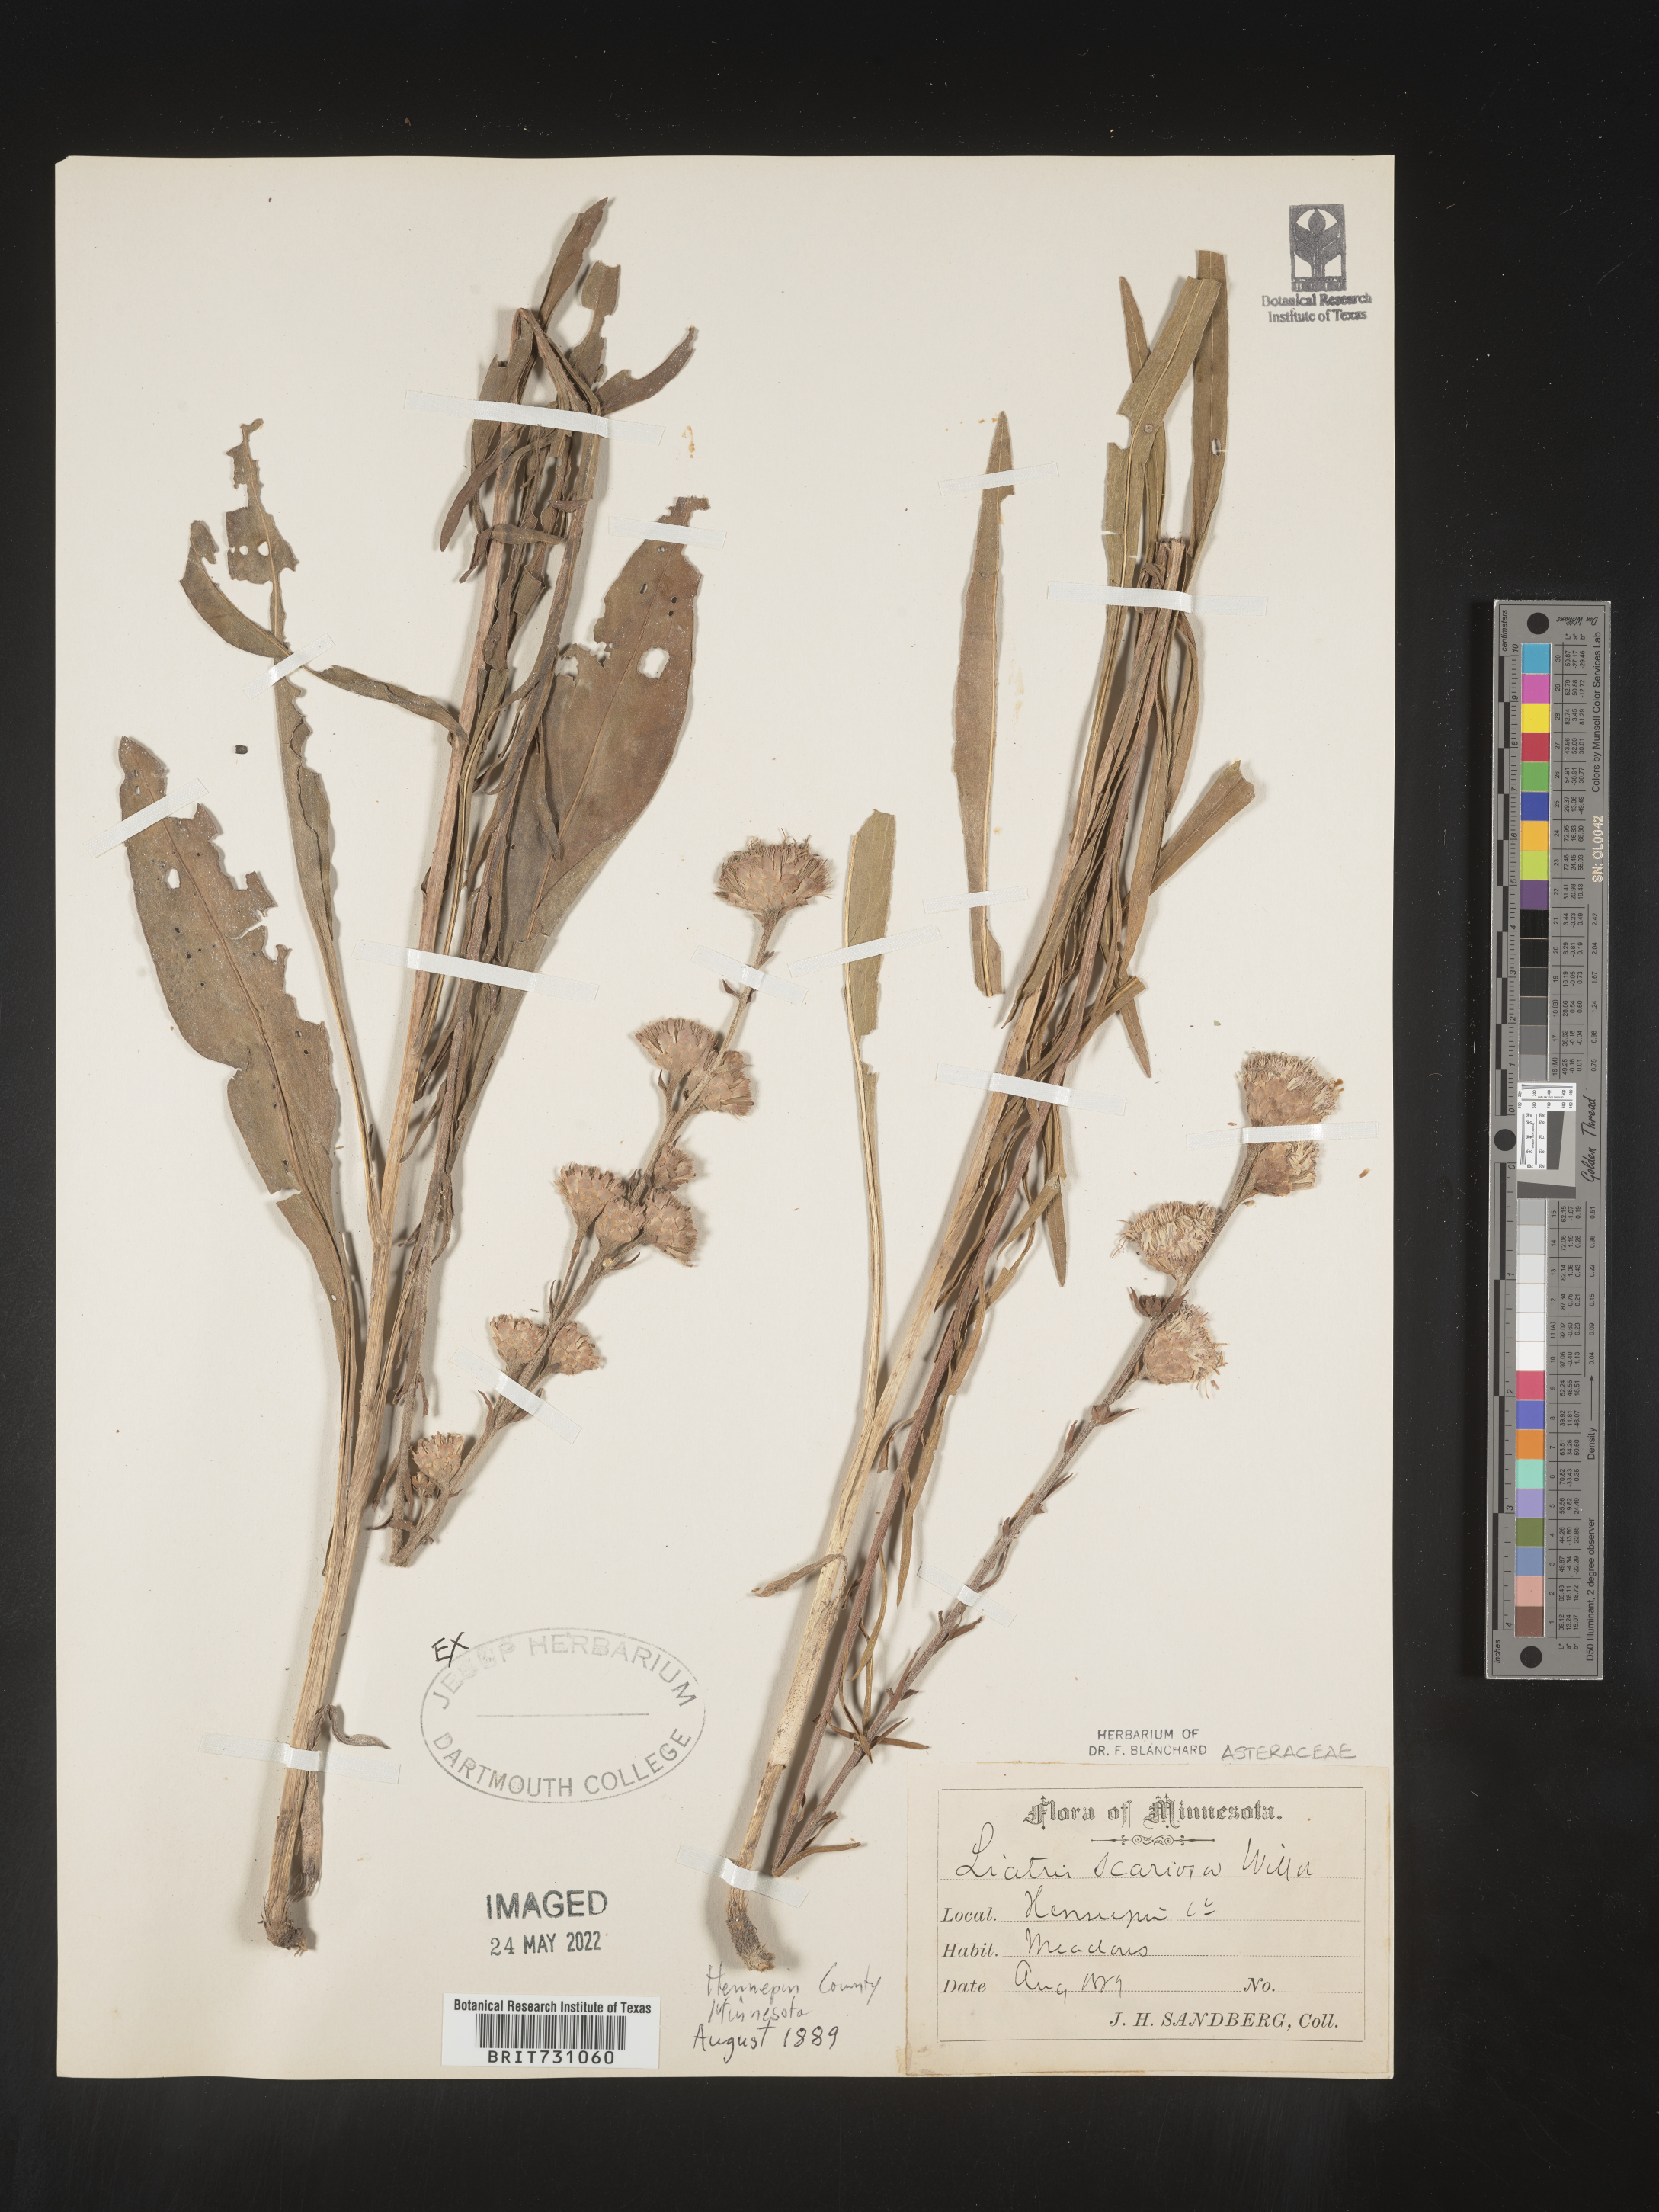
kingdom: Plantae
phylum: Tracheophyta
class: Magnoliopsida
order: Asterales
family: Asteraceae
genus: Liatris
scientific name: Liatris scariosa
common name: Northern gayfeather
